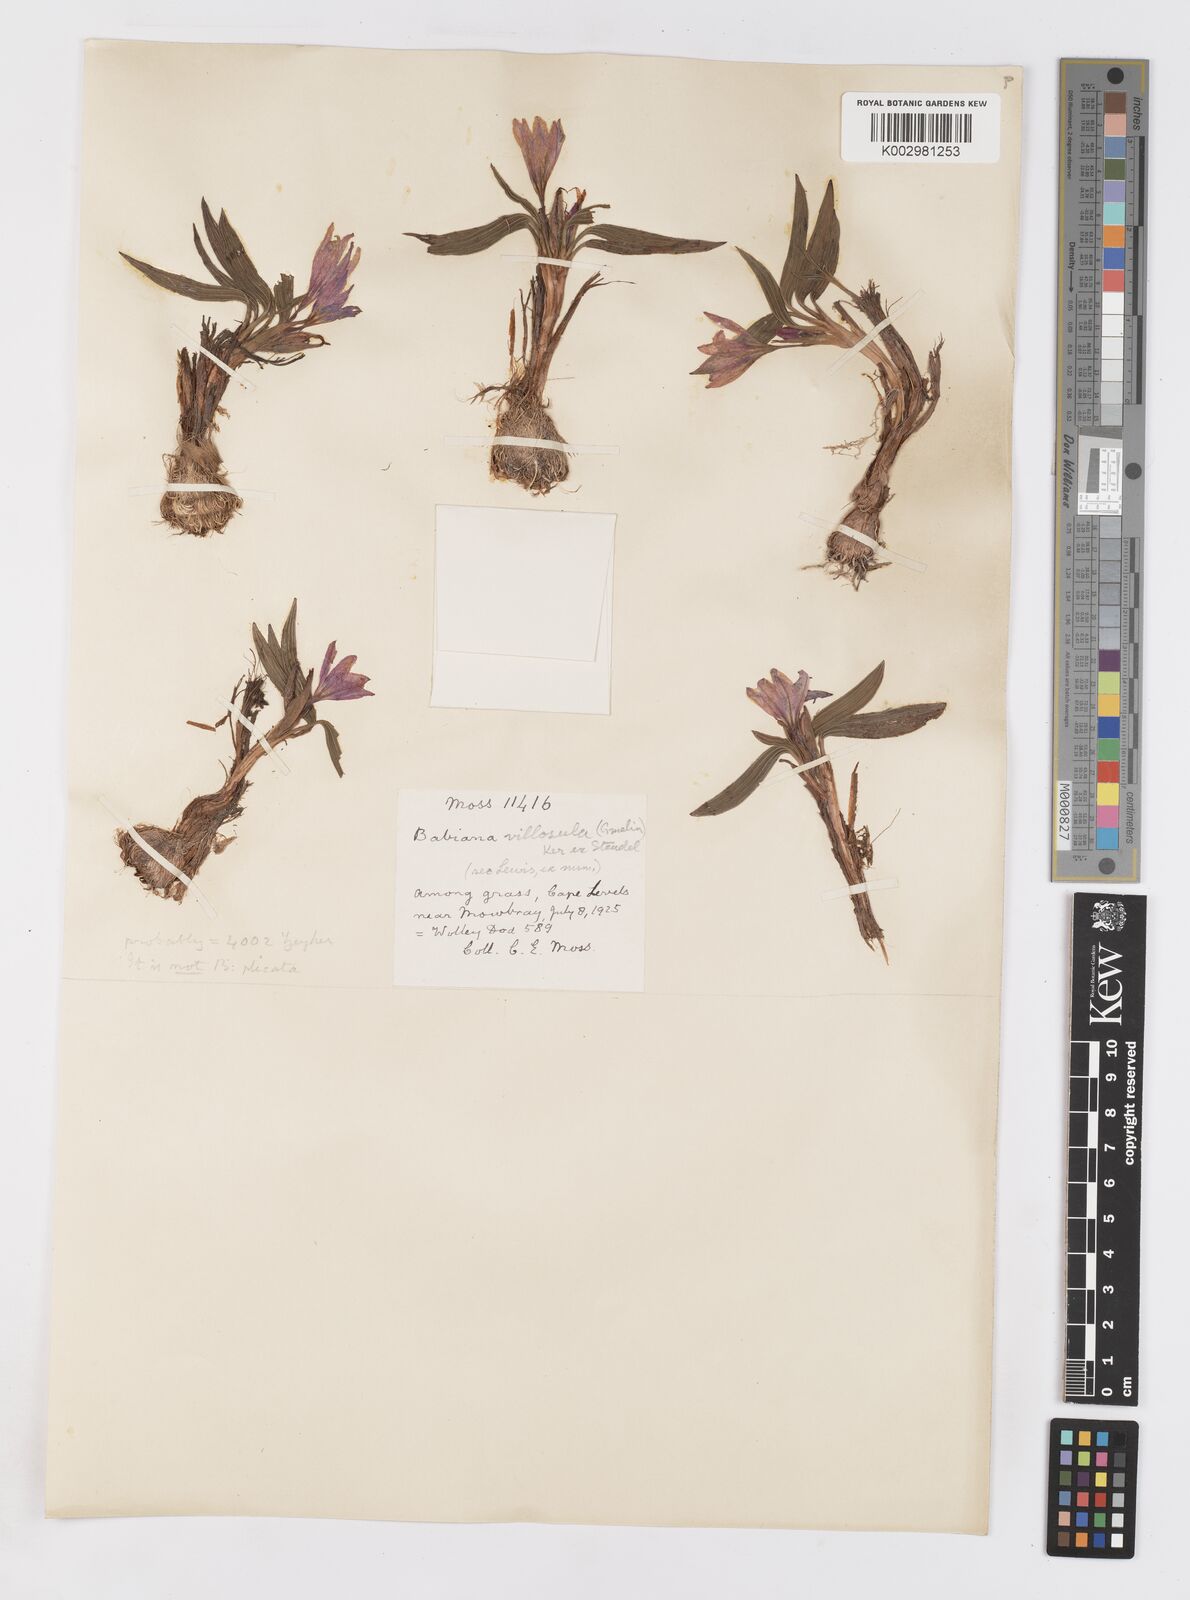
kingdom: Plantae
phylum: Tracheophyta
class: Liliopsida
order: Asparagales
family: Iridaceae
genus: Babiana
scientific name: Babiana villosula
